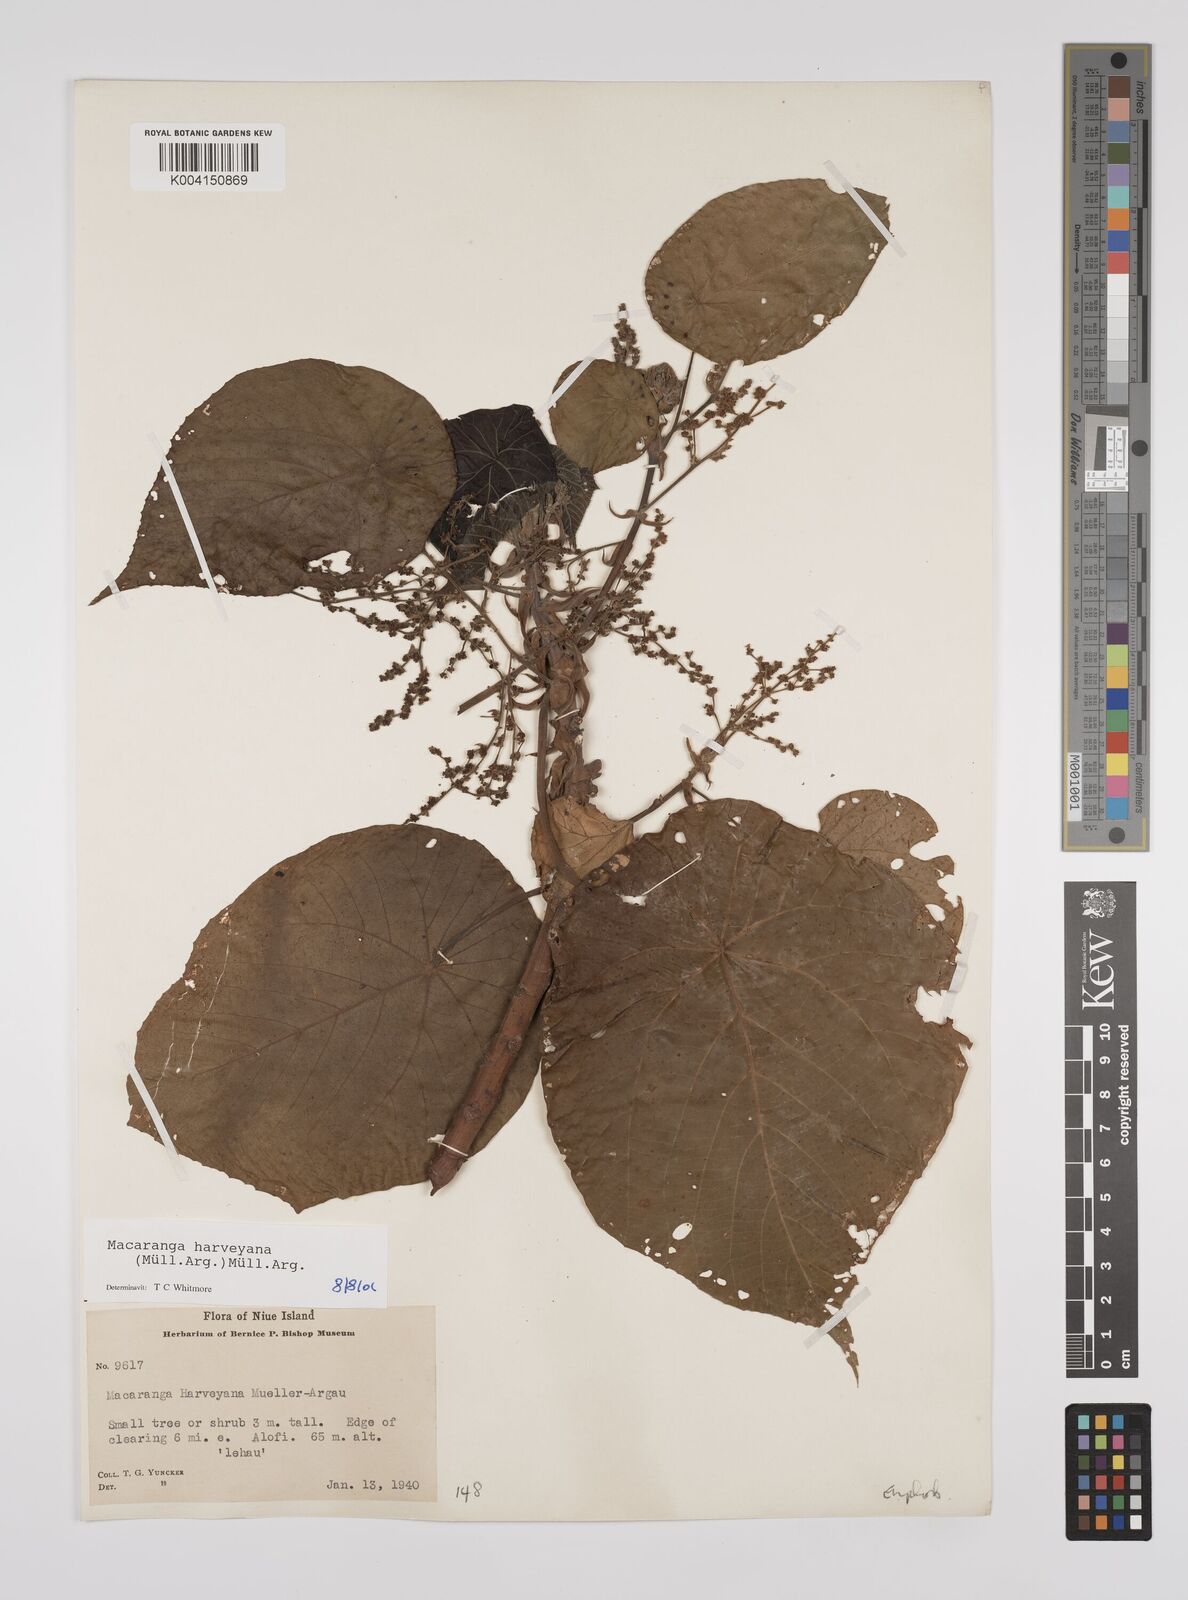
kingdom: Plantae
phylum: Tracheophyta
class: Magnoliopsida
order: Malpighiales
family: Euphorbiaceae
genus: Macaranga
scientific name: Macaranga harveyana
